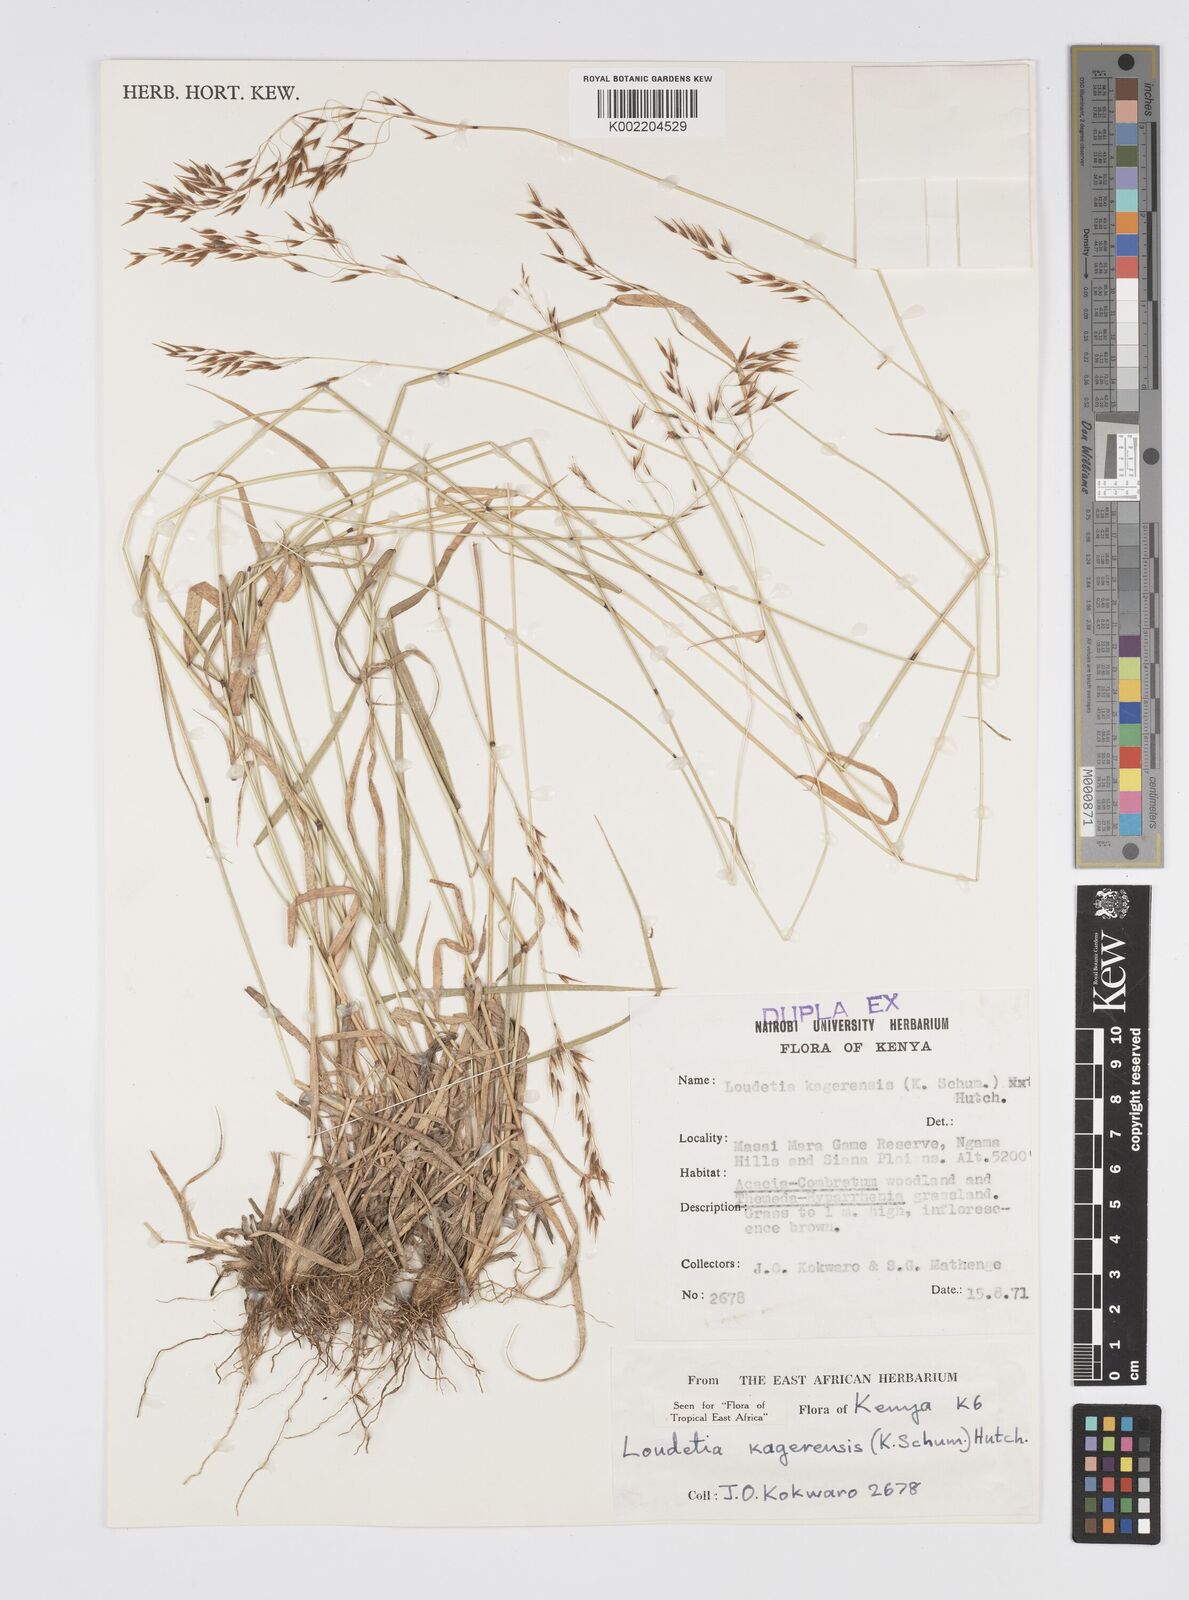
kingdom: Plantae
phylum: Tracheophyta
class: Liliopsida
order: Poales
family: Poaceae
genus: Loudetia
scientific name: Loudetia kagerensis
